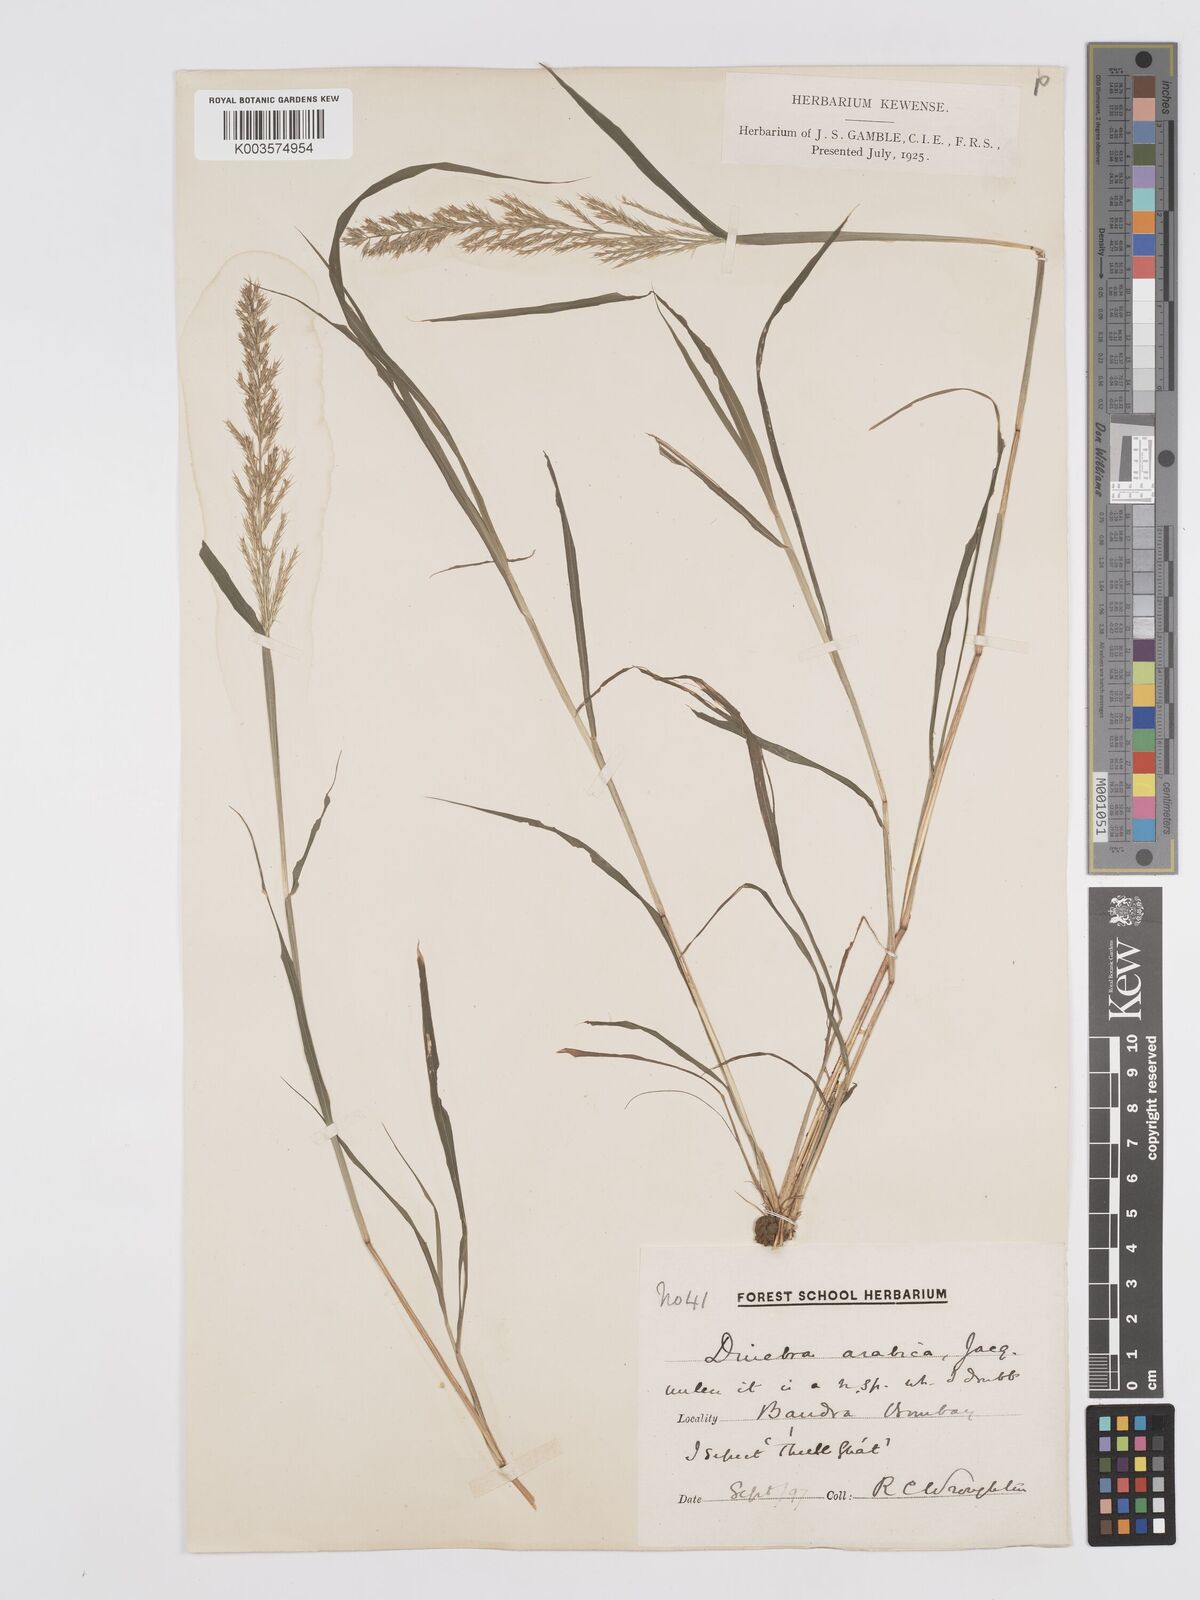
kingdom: Plantae
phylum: Tracheophyta
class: Liliopsida
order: Poales
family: Poaceae
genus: Dinebra
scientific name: Dinebra retroflexa
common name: Viper grass
